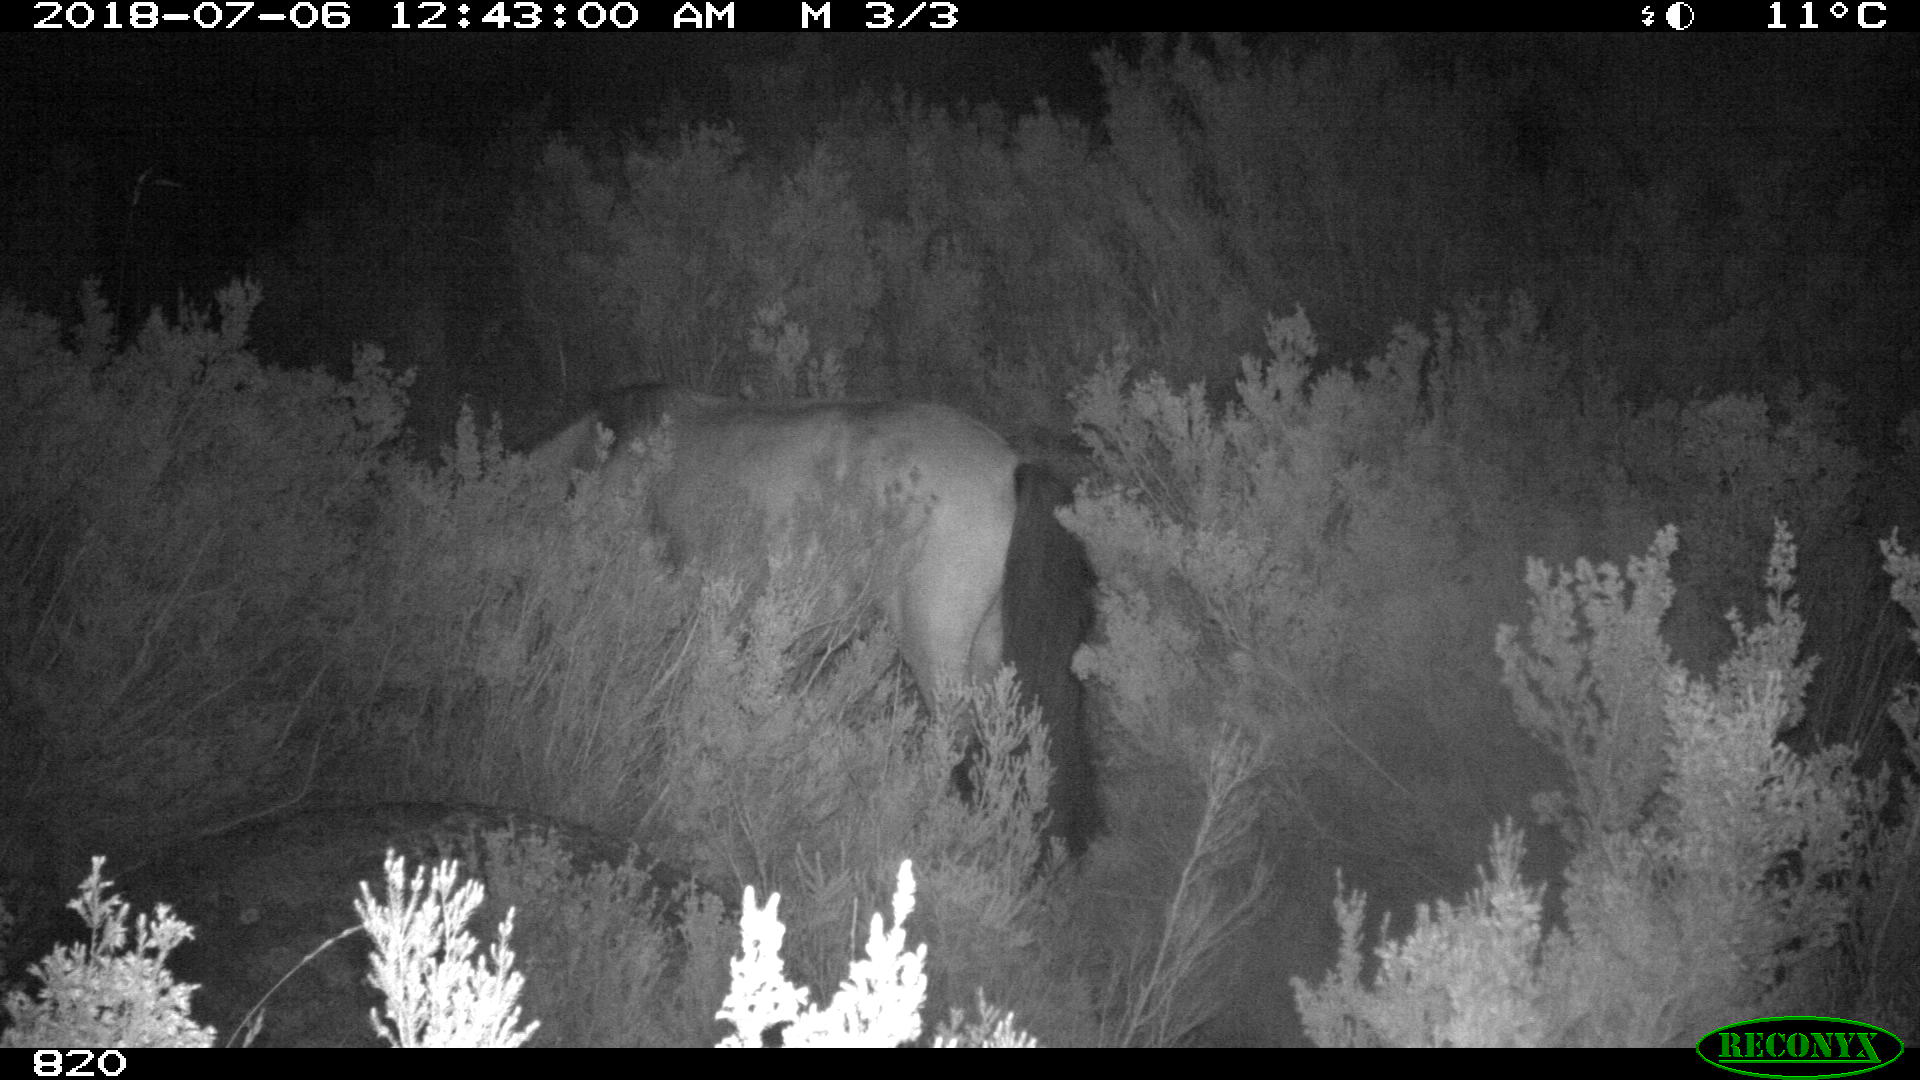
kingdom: Animalia
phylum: Chordata
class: Mammalia
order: Perissodactyla
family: Equidae
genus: Equus
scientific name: Equus caballus
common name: Horse
